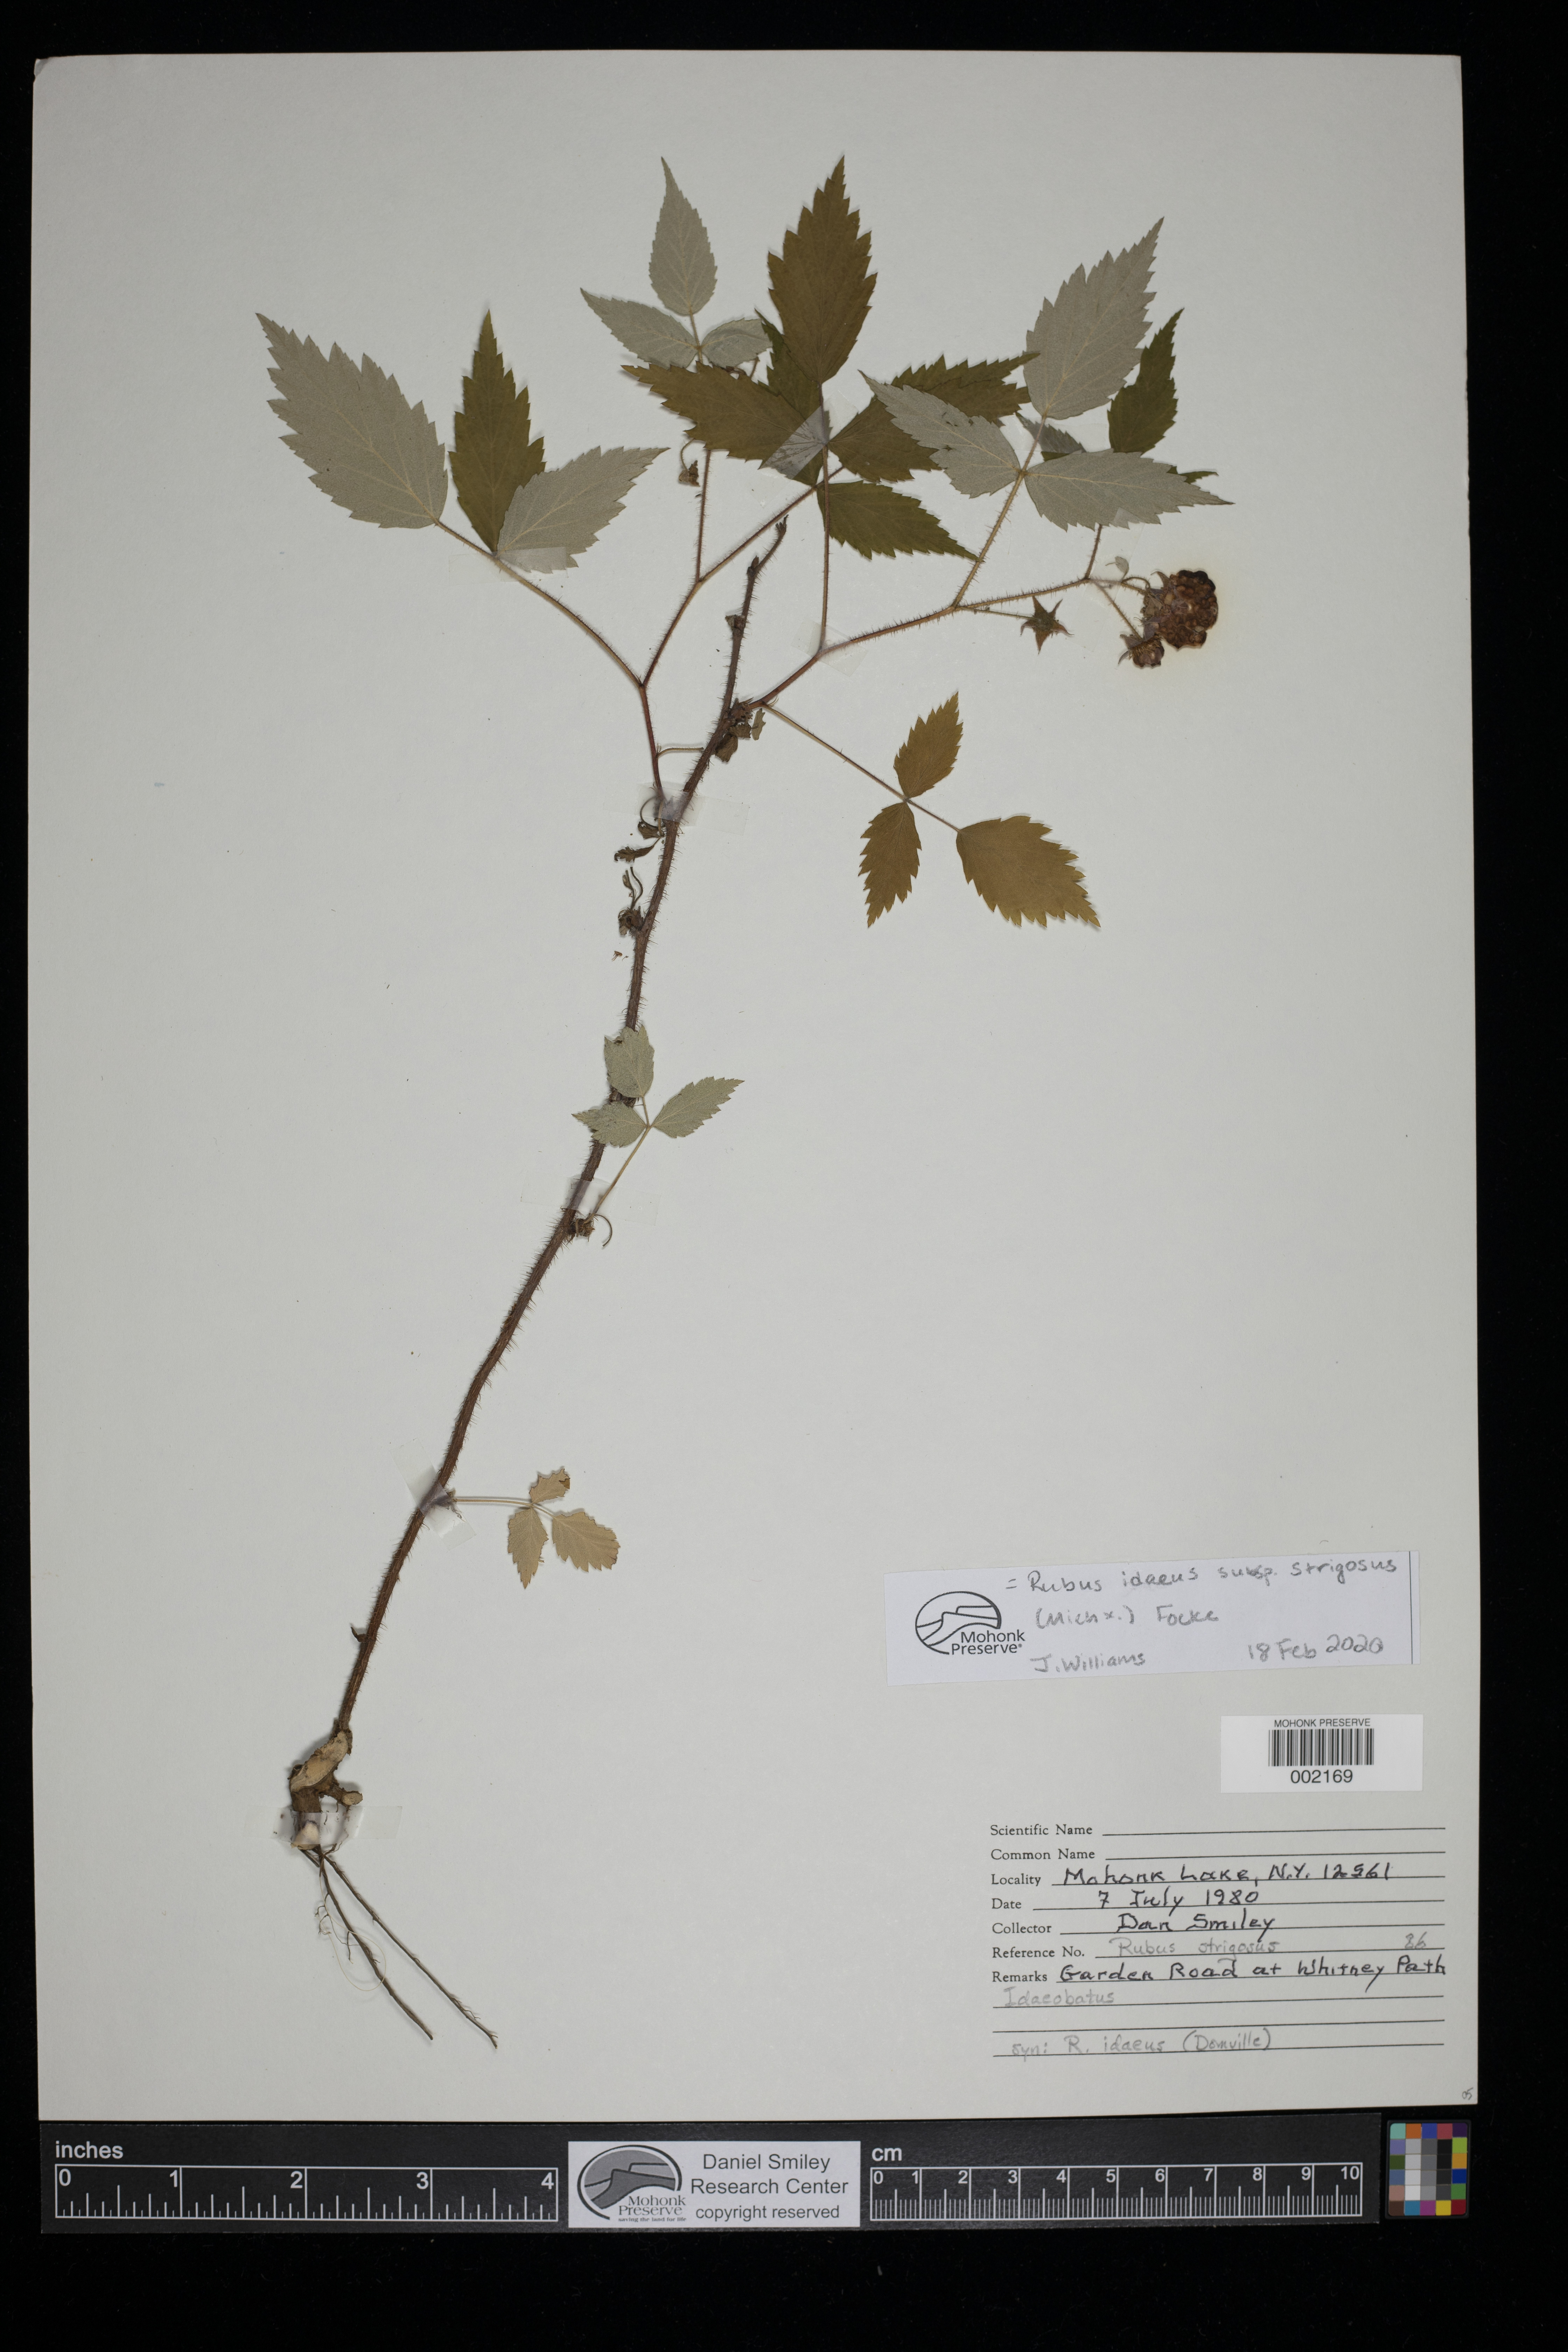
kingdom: Plantae
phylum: Tracheophyta
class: Magnoliopsida
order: Rosales
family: Rosaceae
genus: Rubus
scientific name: Rubus laciniatus
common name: Evergreen blackberry
